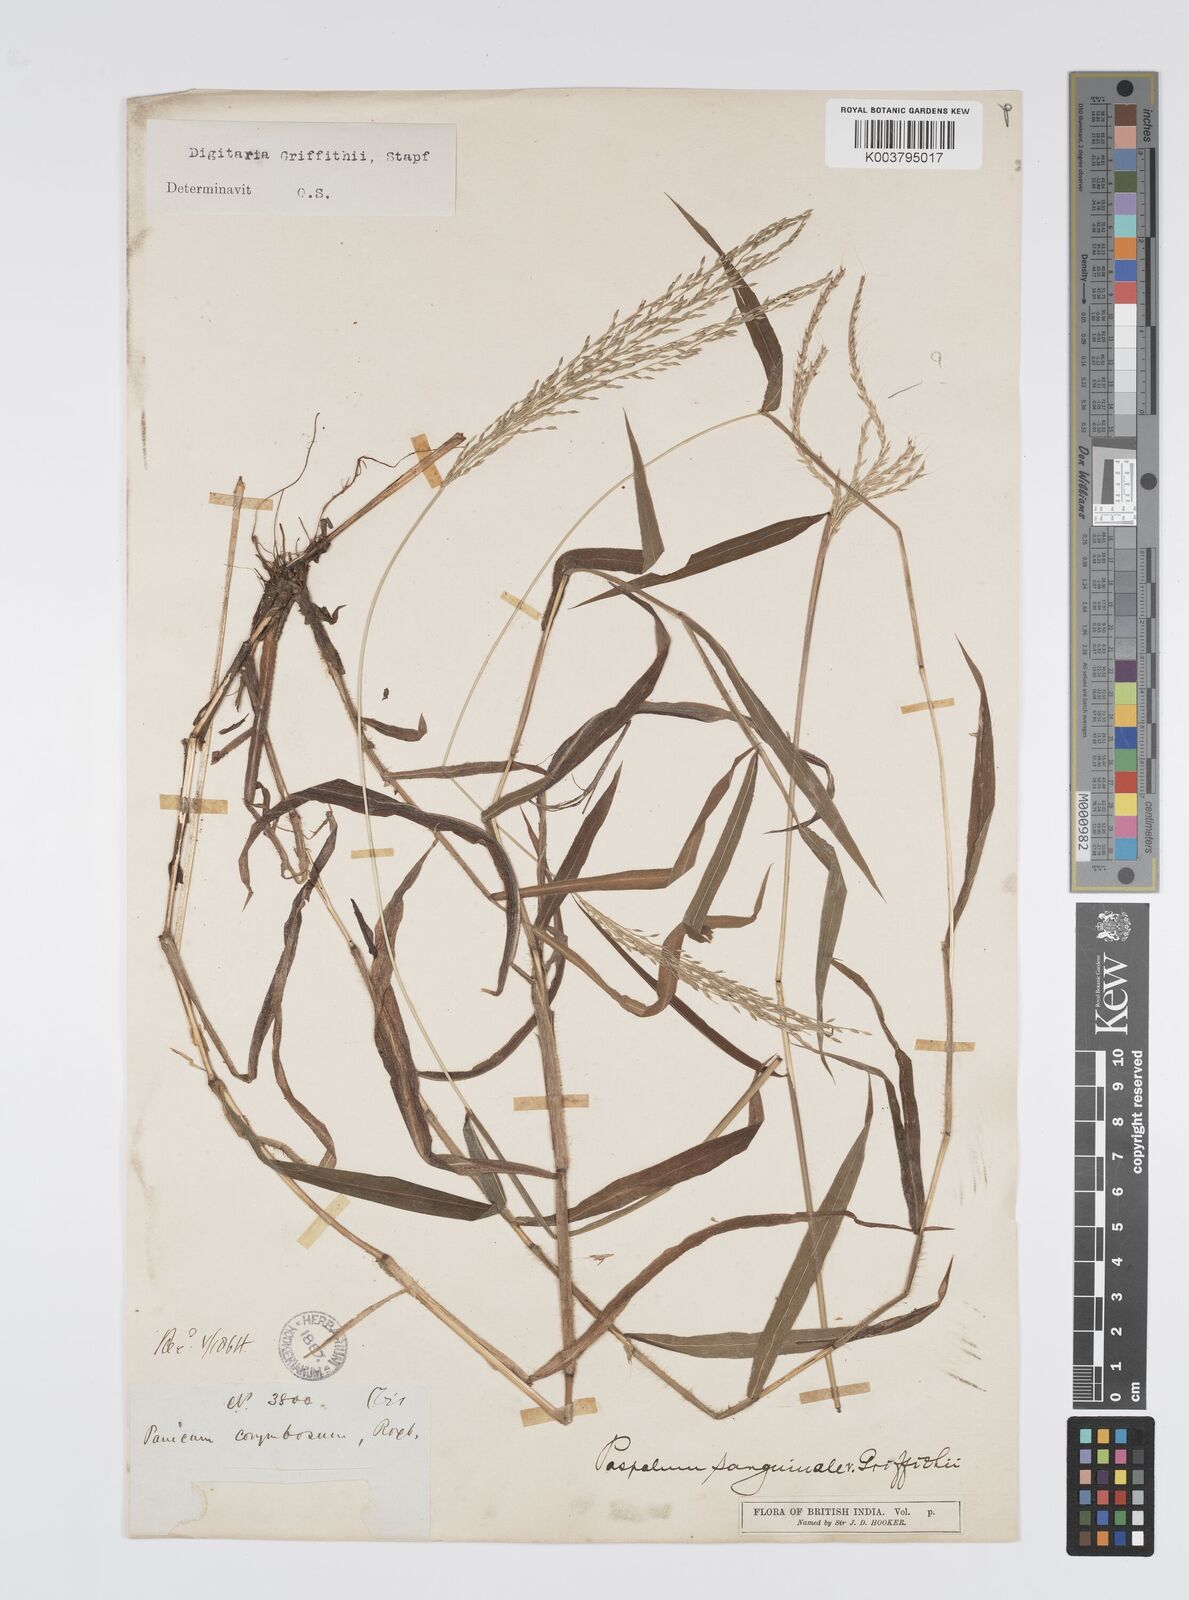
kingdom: Plantae
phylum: Tracheophyta
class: Liliopsida
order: Poales
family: Poaceae
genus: Digitaria
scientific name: Digitaria griffithii
